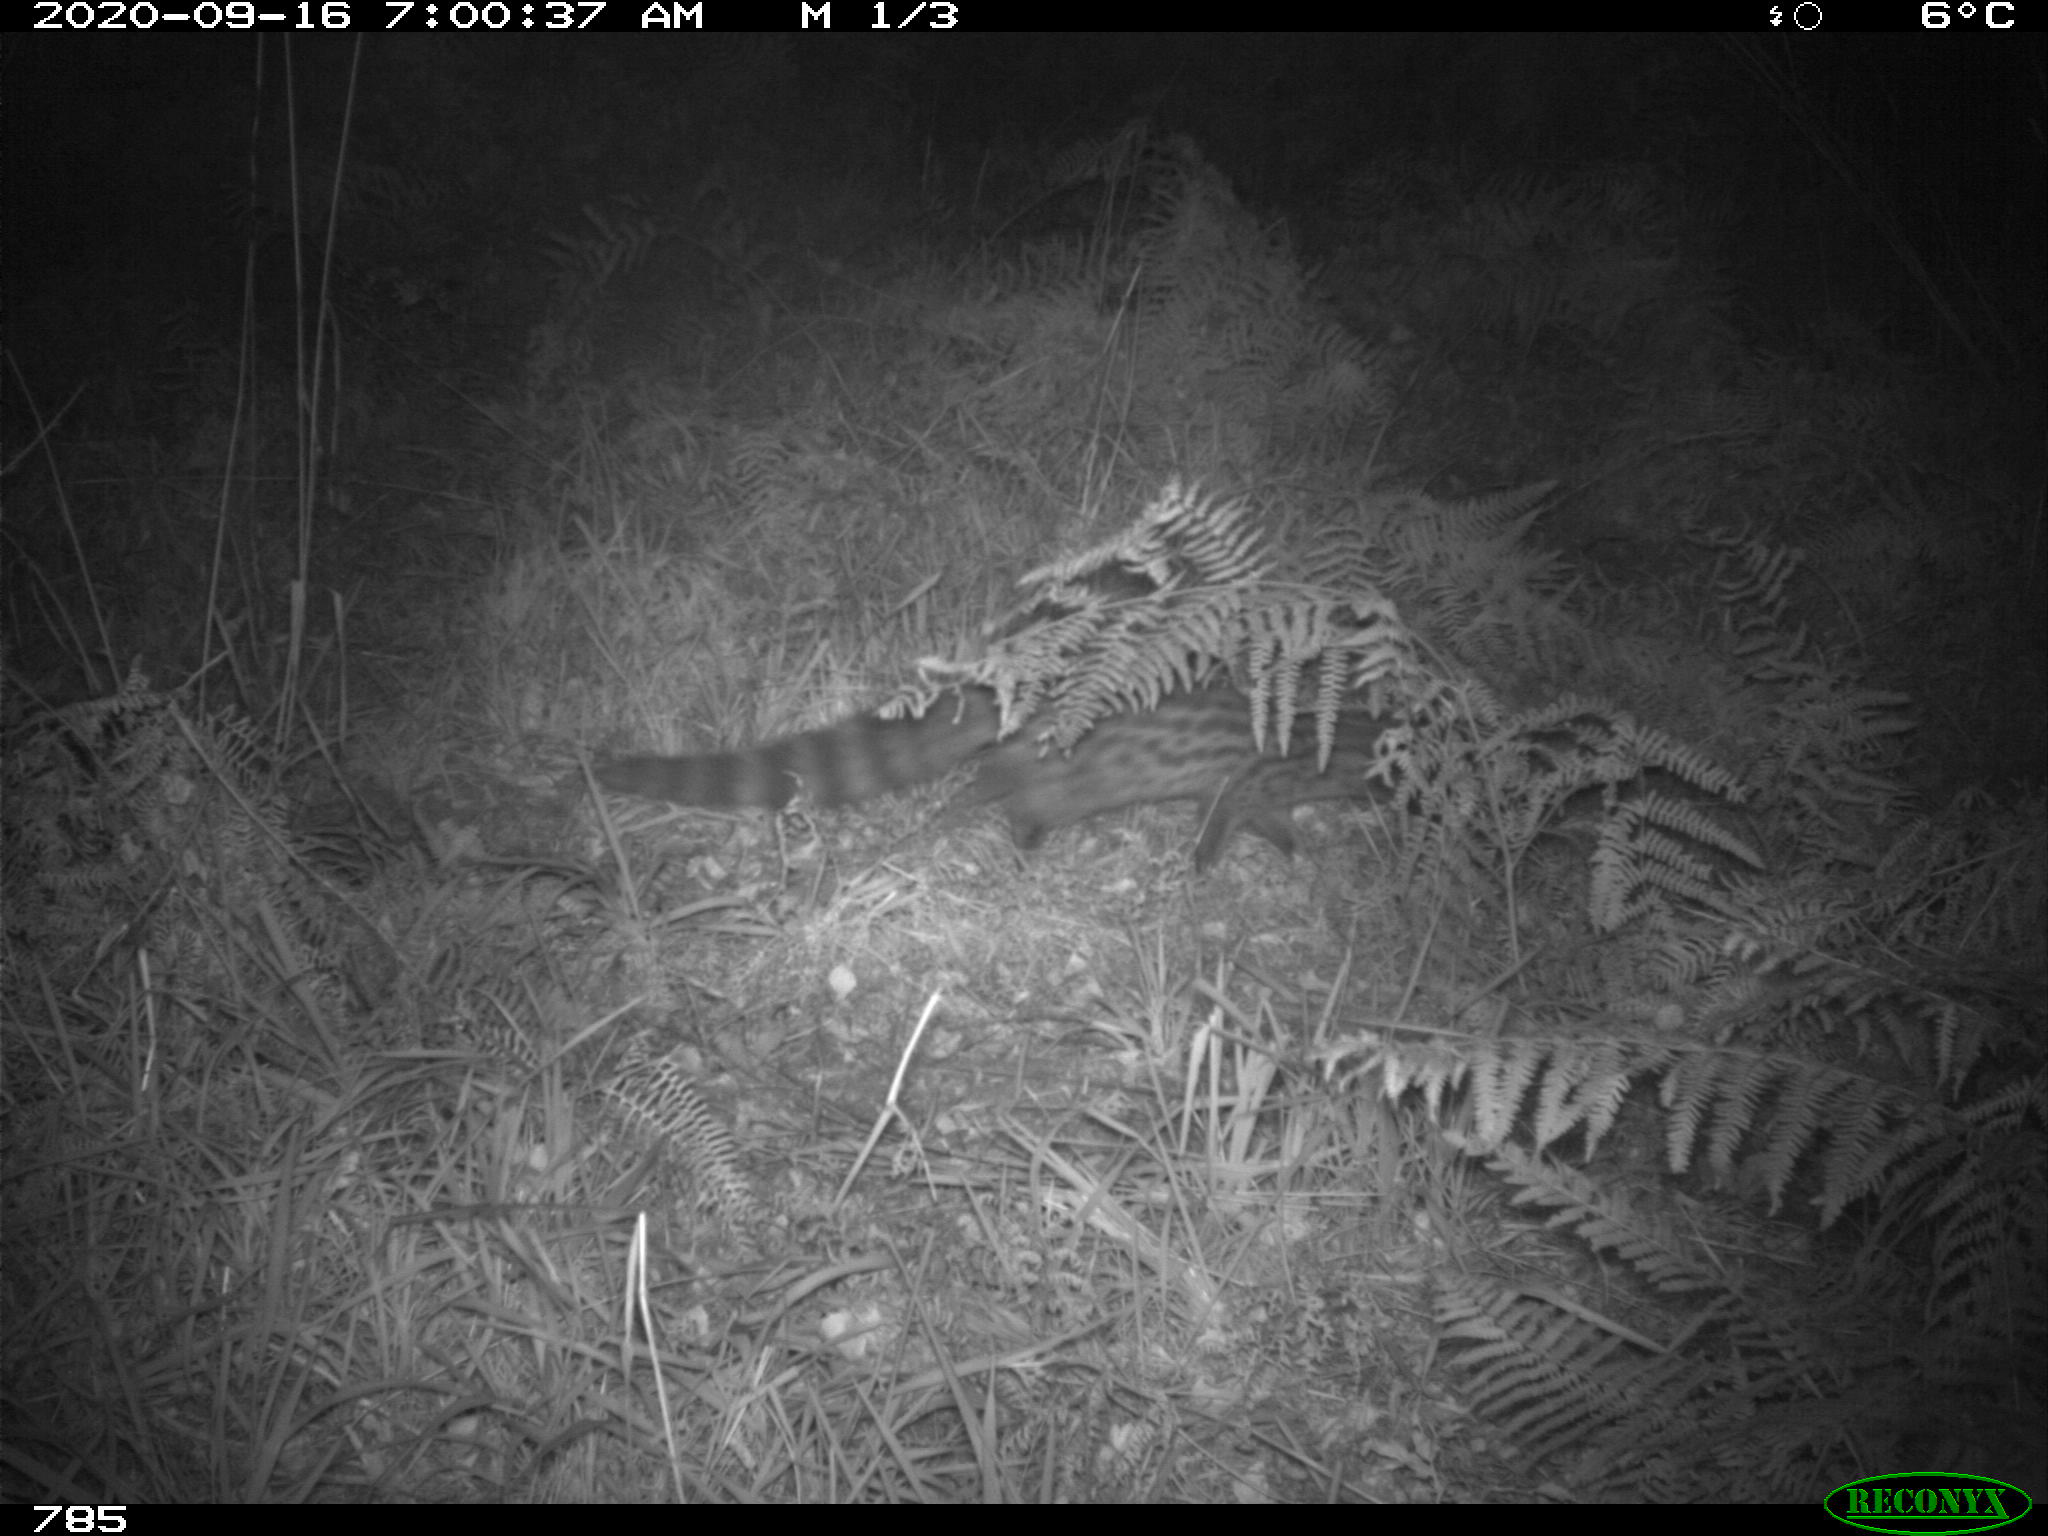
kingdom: Animalia
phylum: Chordata
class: Mammalia
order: Carnivora
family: Viverridae
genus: Genetta
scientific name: Genetta genetta
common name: Common genet
